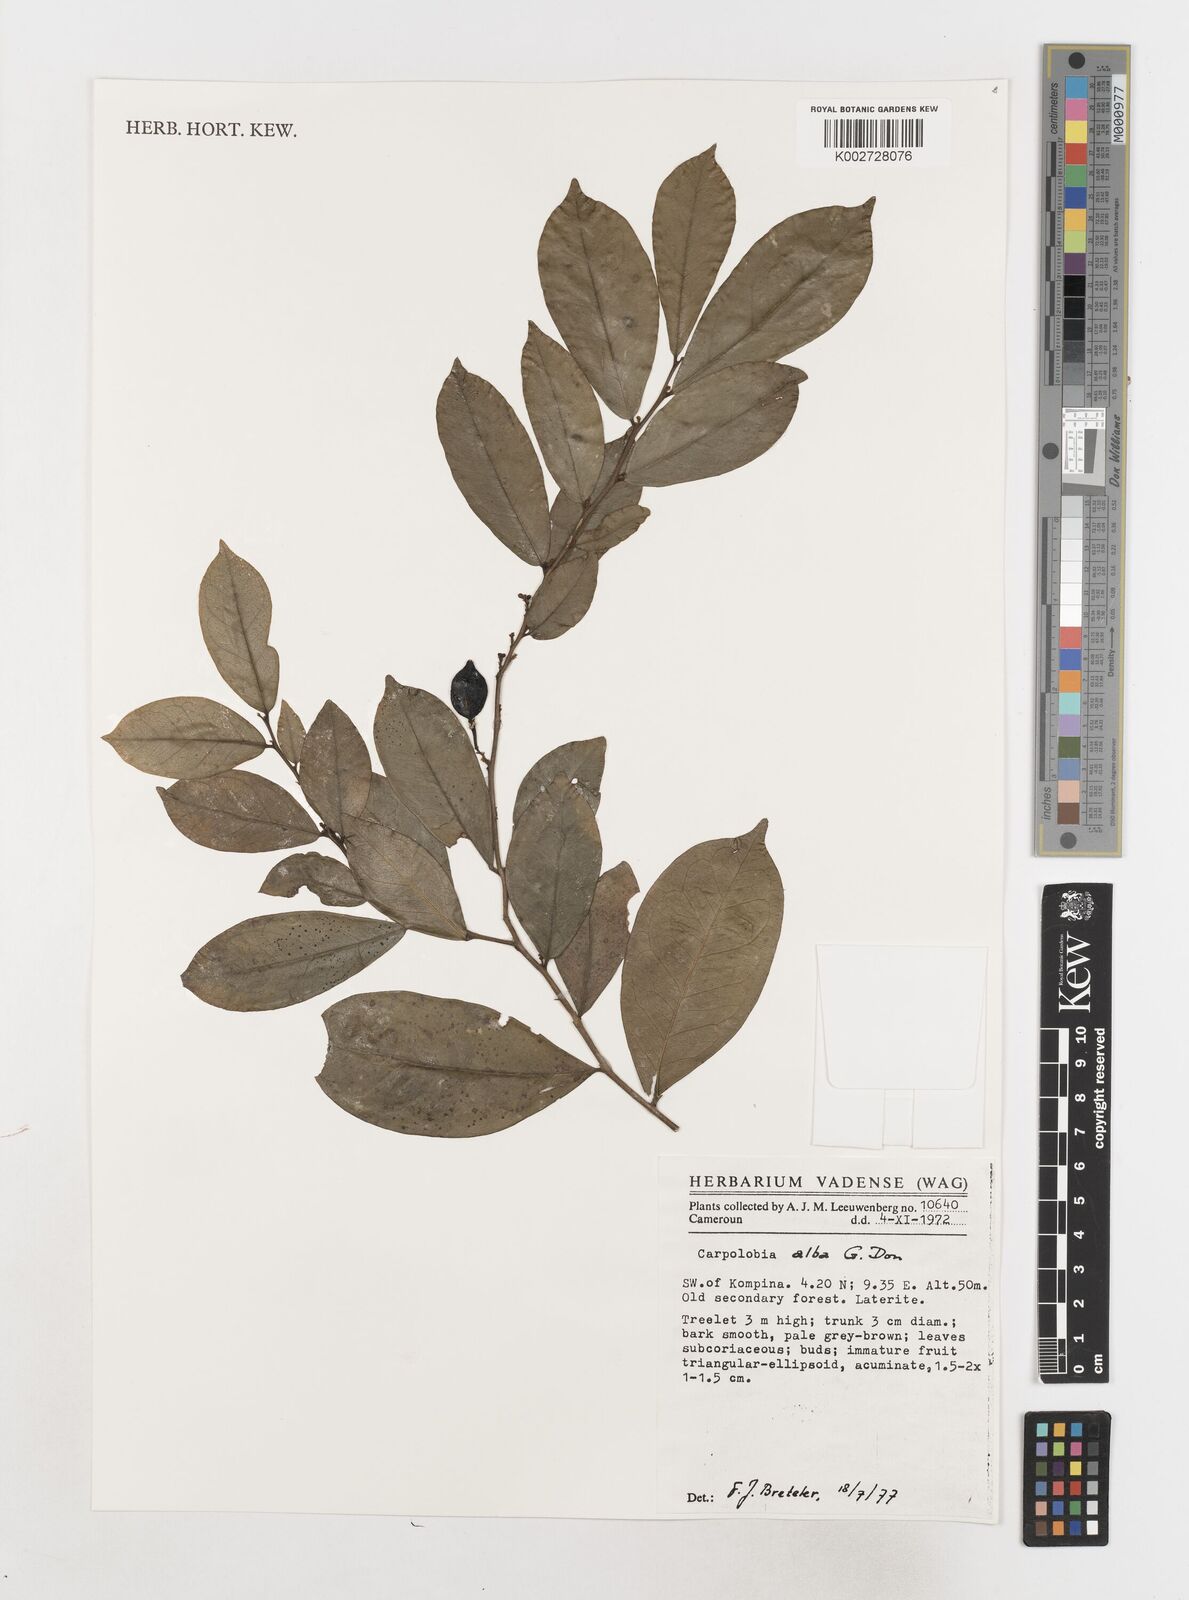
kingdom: Plantae
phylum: Tracheophyta
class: Magnoliopsida
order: Fabales
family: Polygalaceae
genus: Carpolobia
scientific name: Carpolobia alba
